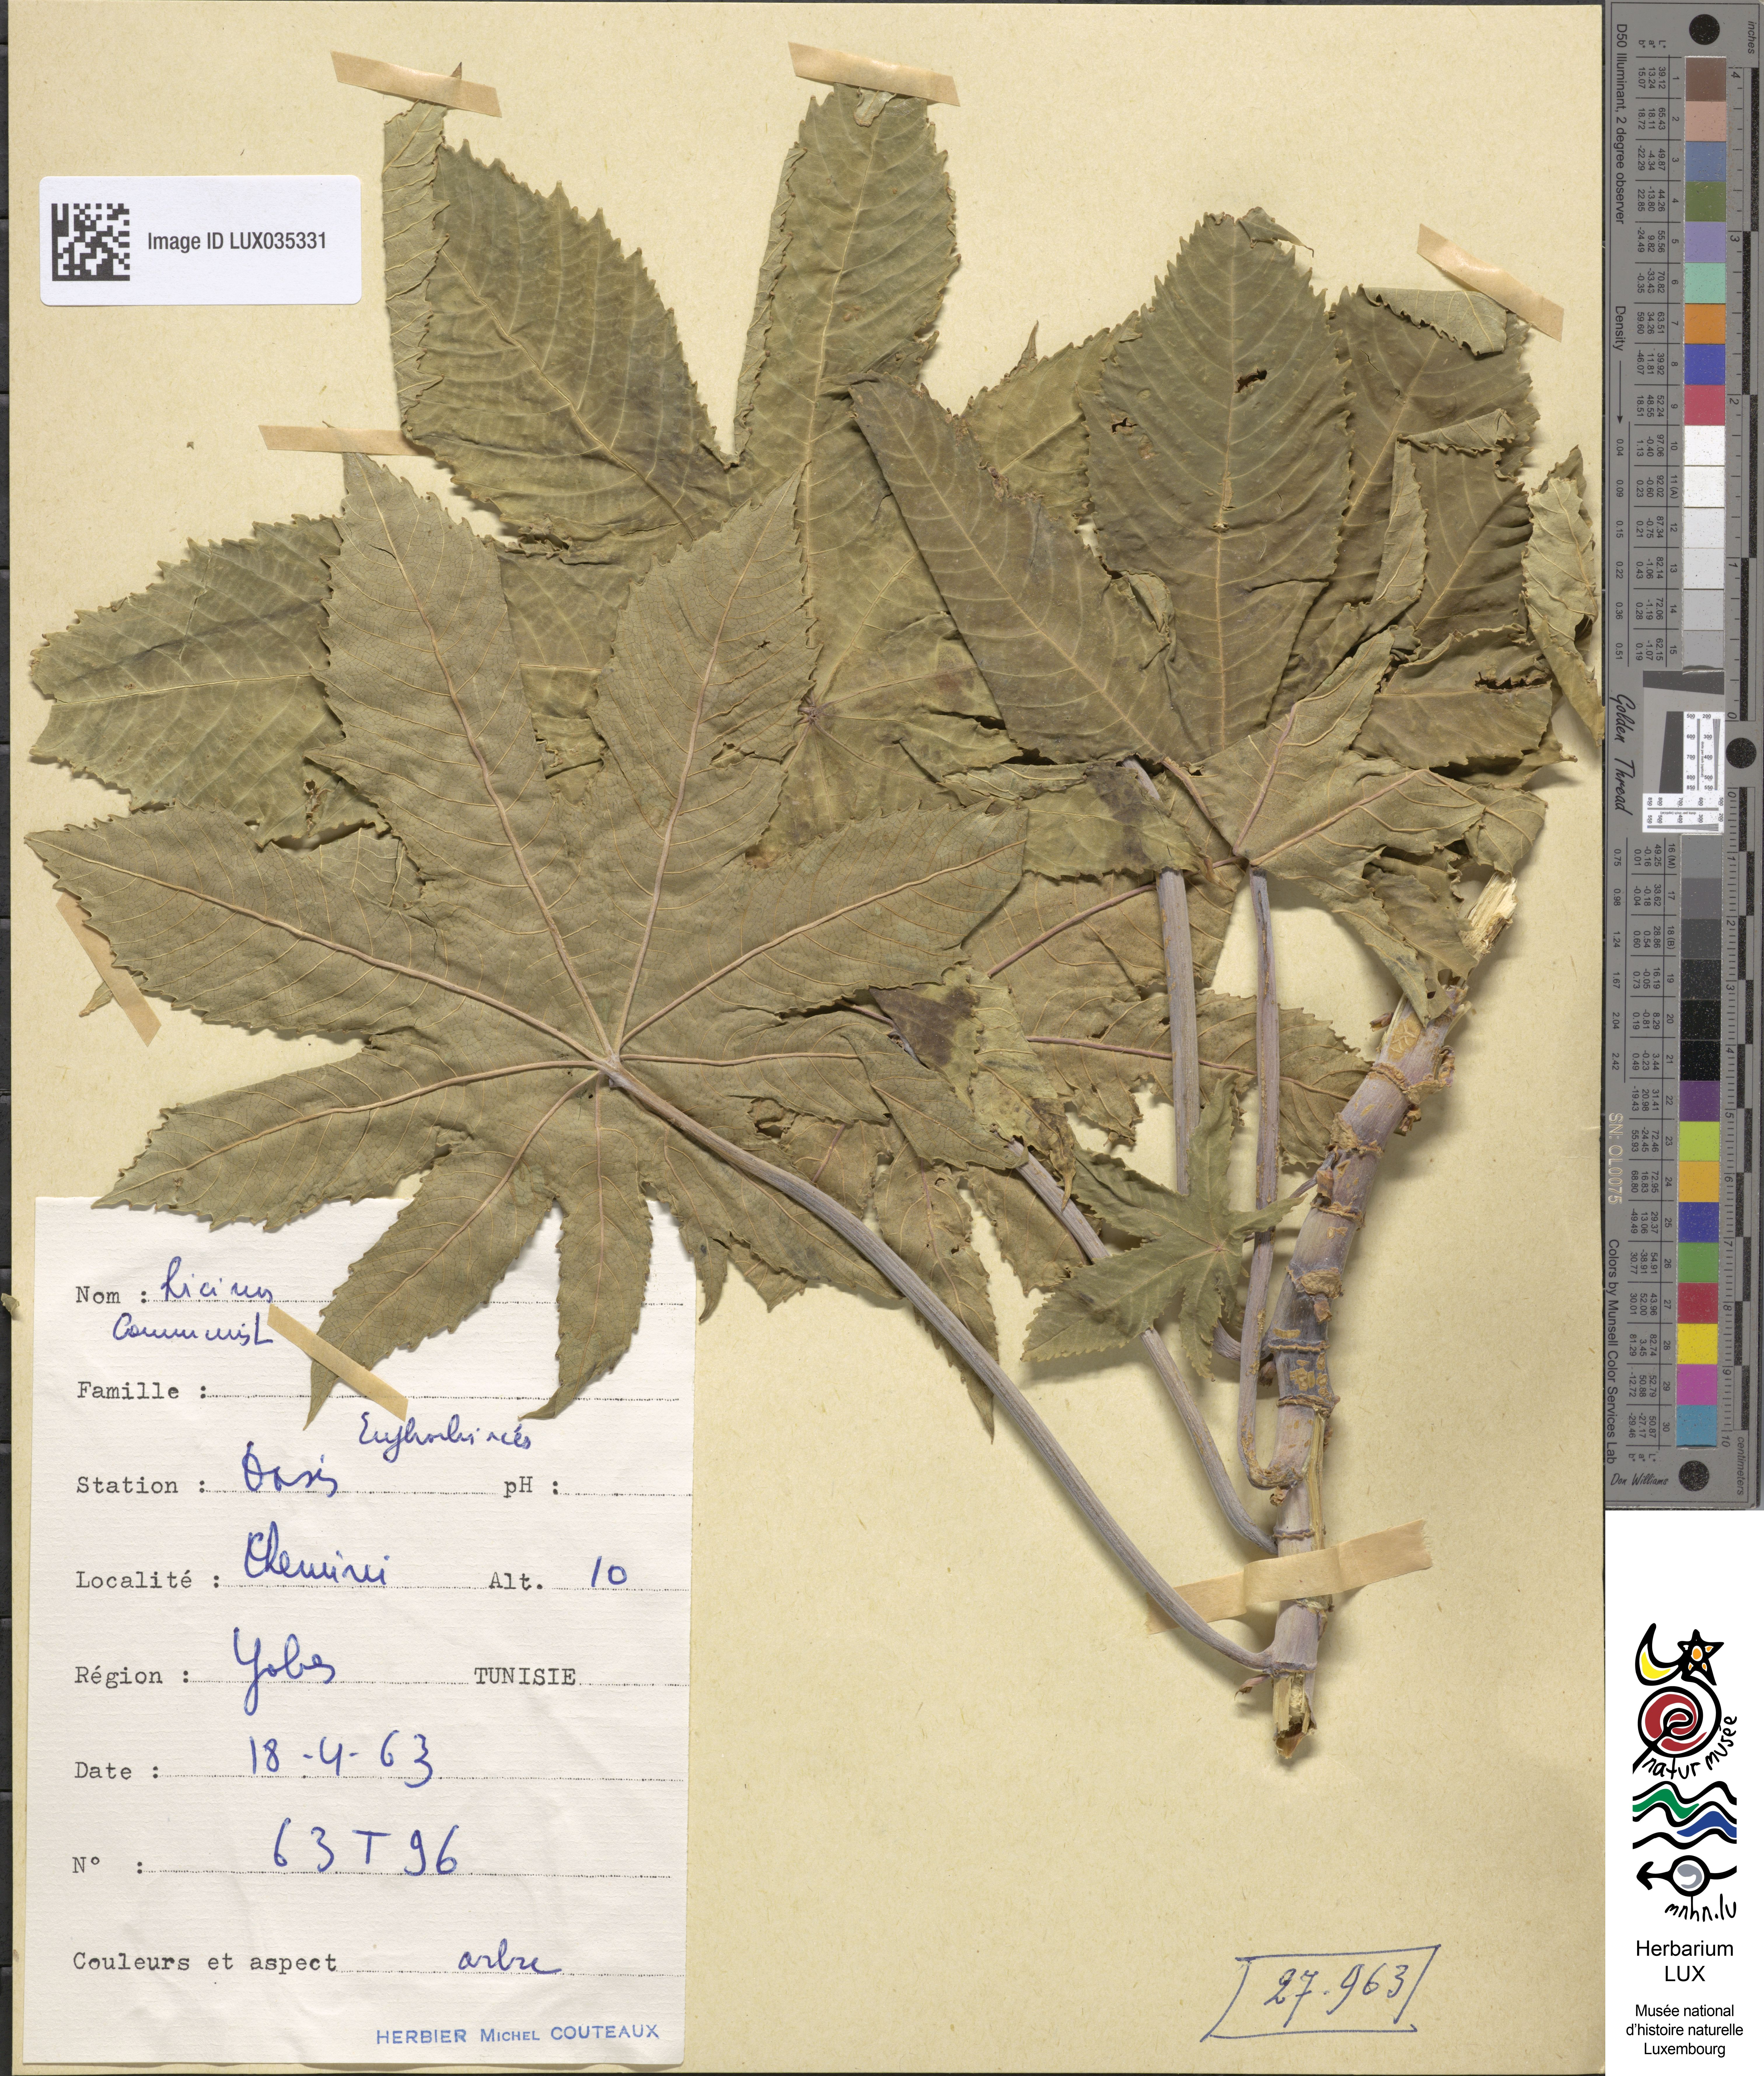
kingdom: Plantae
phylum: Tracheophyta
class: Magnoliopsida
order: Malpighiales
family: Euphorbiaceae
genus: Ricinus
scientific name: Ricinus communis
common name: Castor-oil-plant
